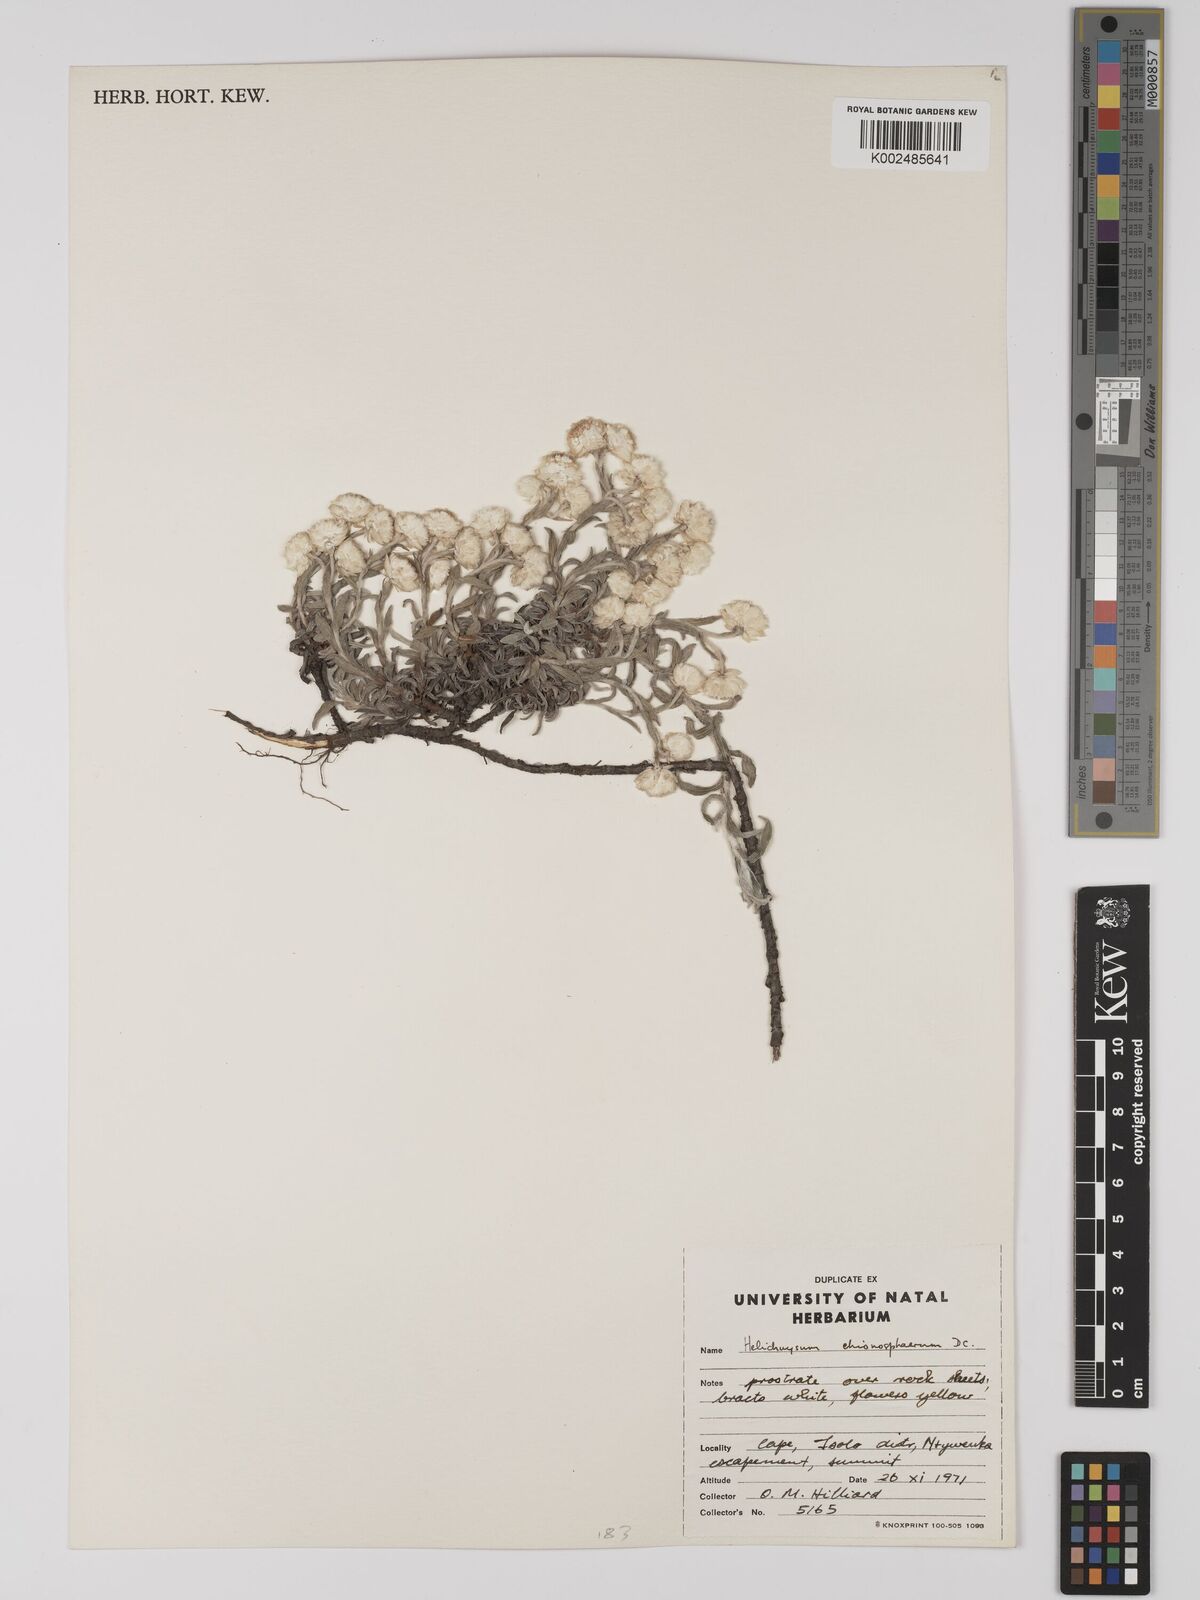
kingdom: Plantae
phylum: Tracheophyta
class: Magnoliopsida
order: Asterales
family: Asteraceae
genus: Helichrysum
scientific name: Helichrysum chionosphaerum
